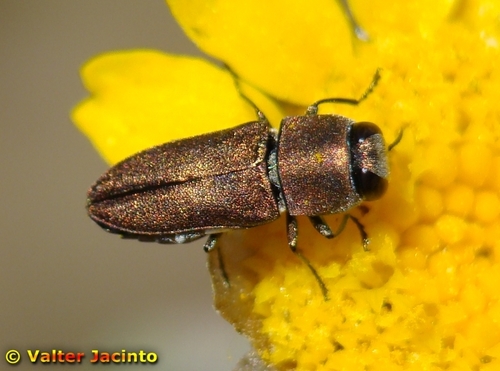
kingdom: Animalia
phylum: Arthropoda
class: Insecta
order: Coleoptera
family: Buprestidae
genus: Anthaxia
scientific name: Anthaxia umbellatarum
